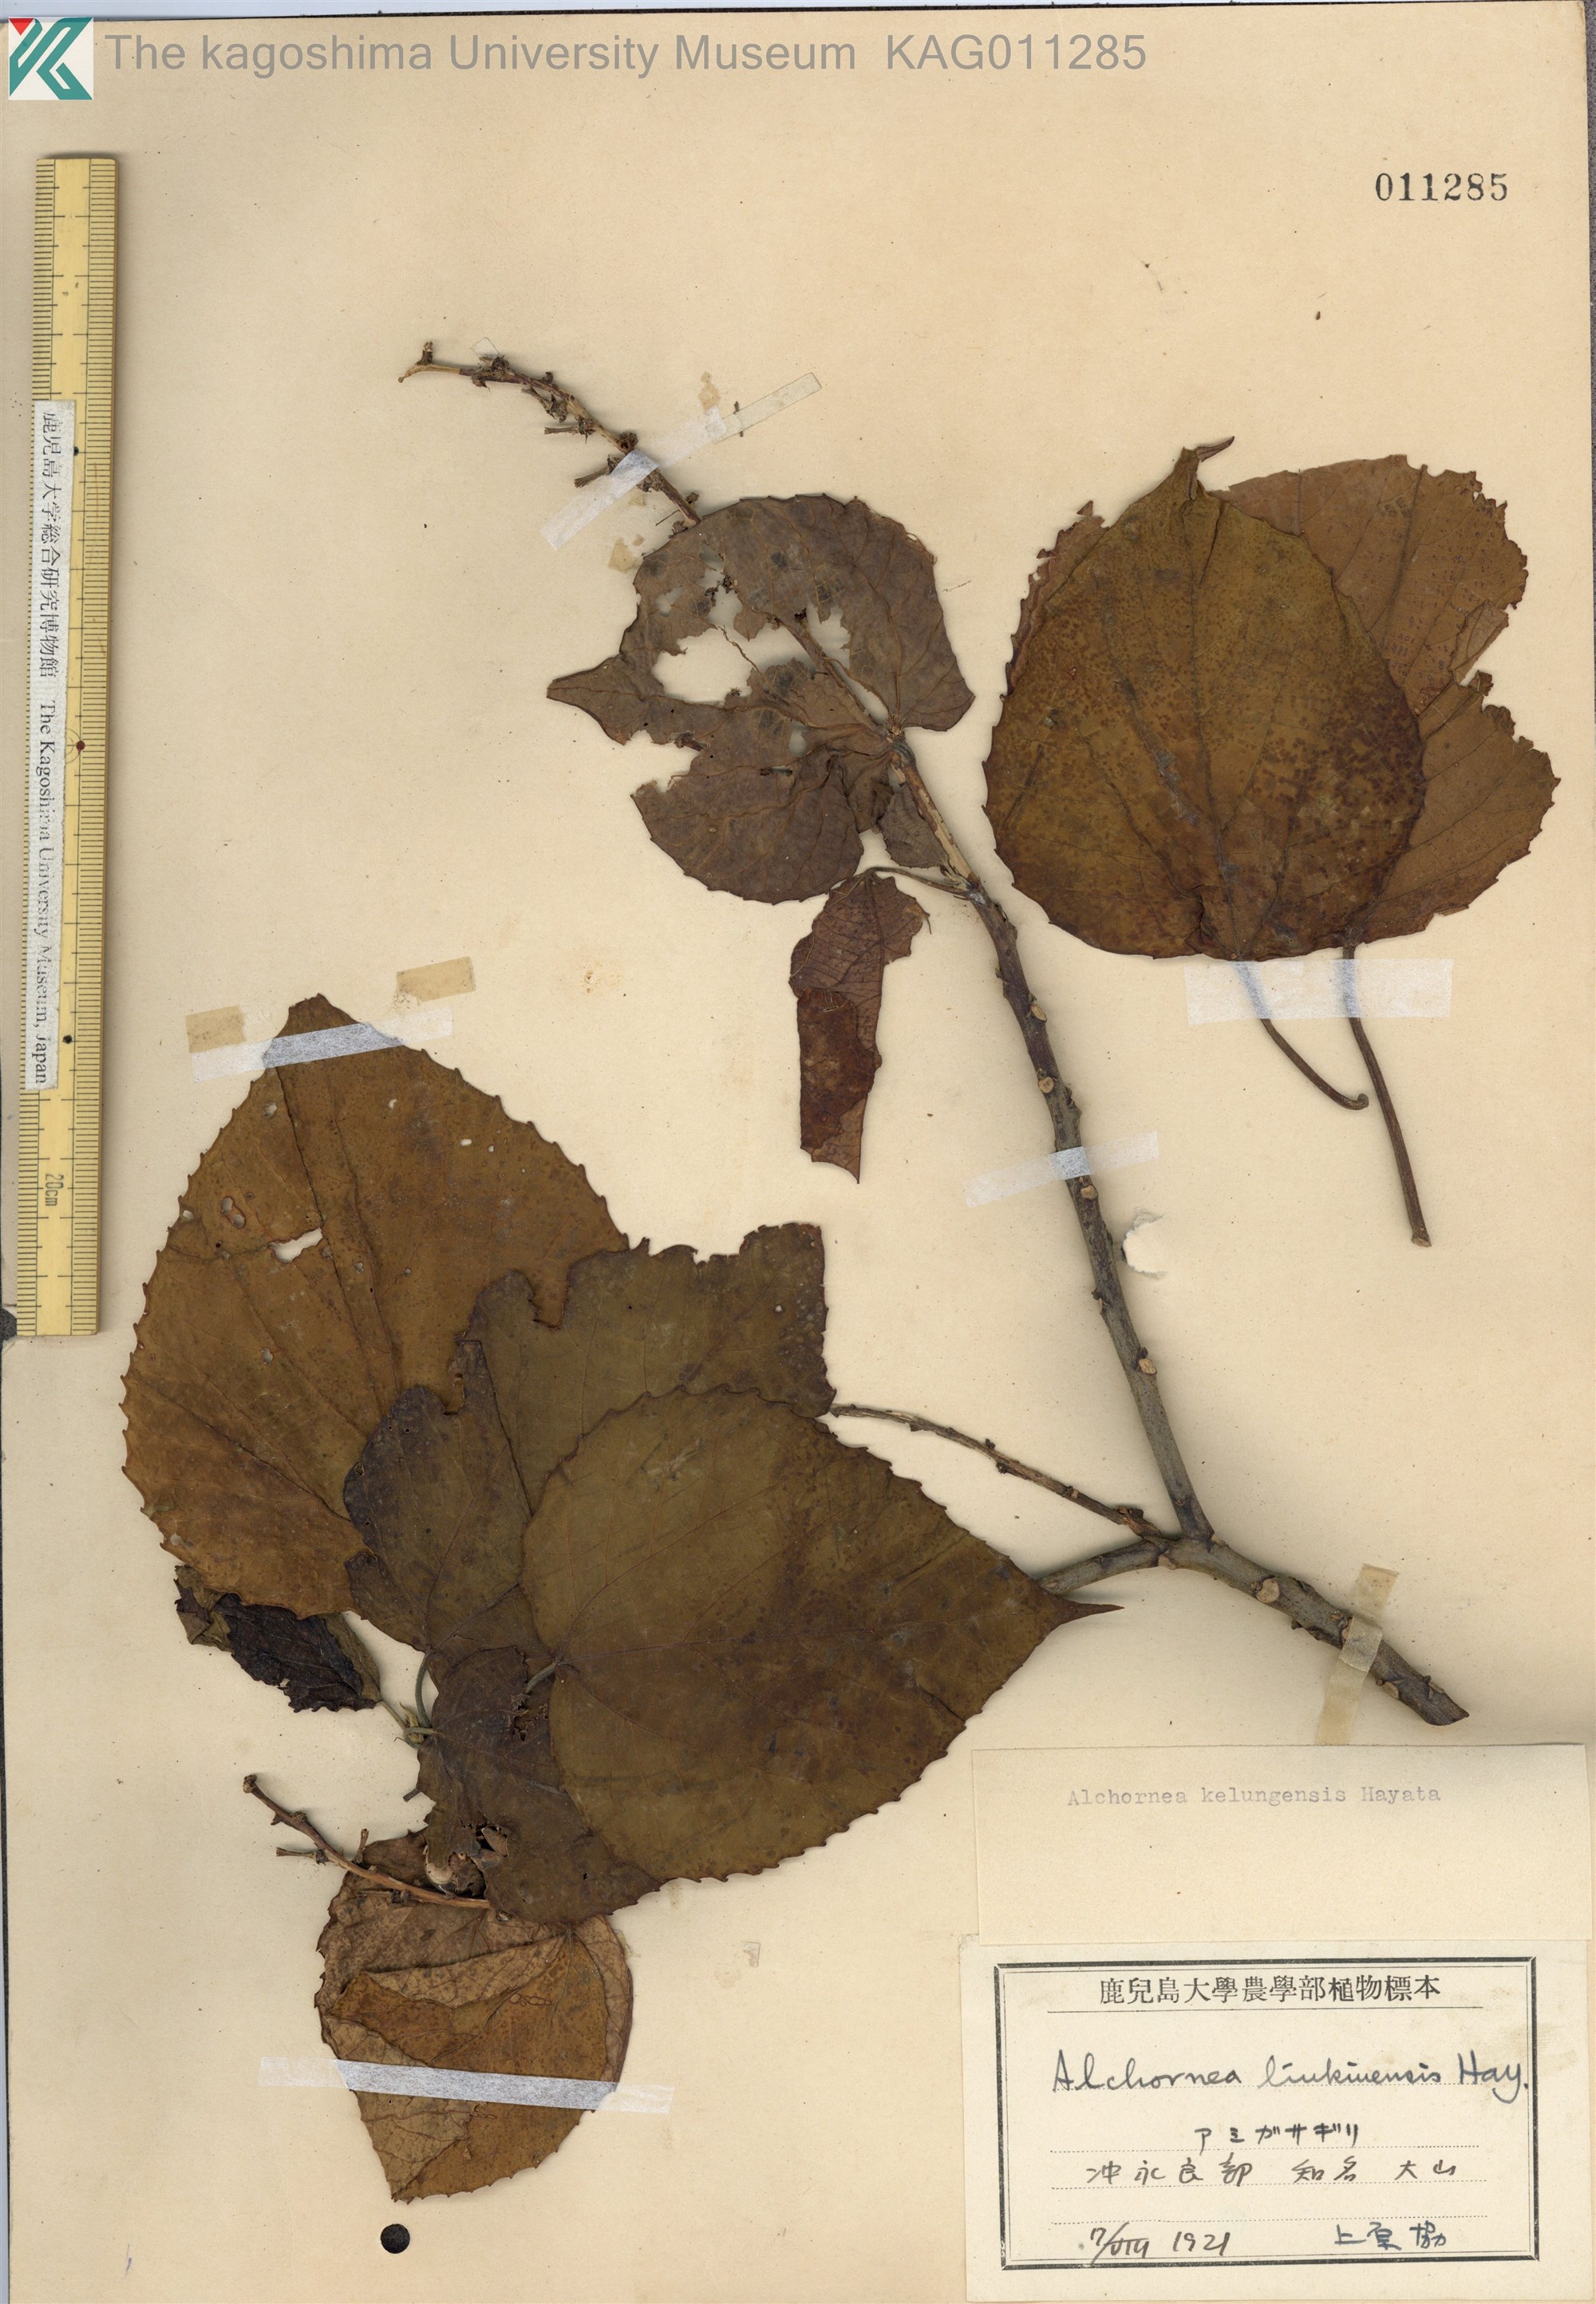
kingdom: Plantae
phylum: Tracheophyta
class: Magnoliopsida
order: Malpighiales
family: Euphorbiaceae
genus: Alchornea
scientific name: Alchornea liukiuensis
